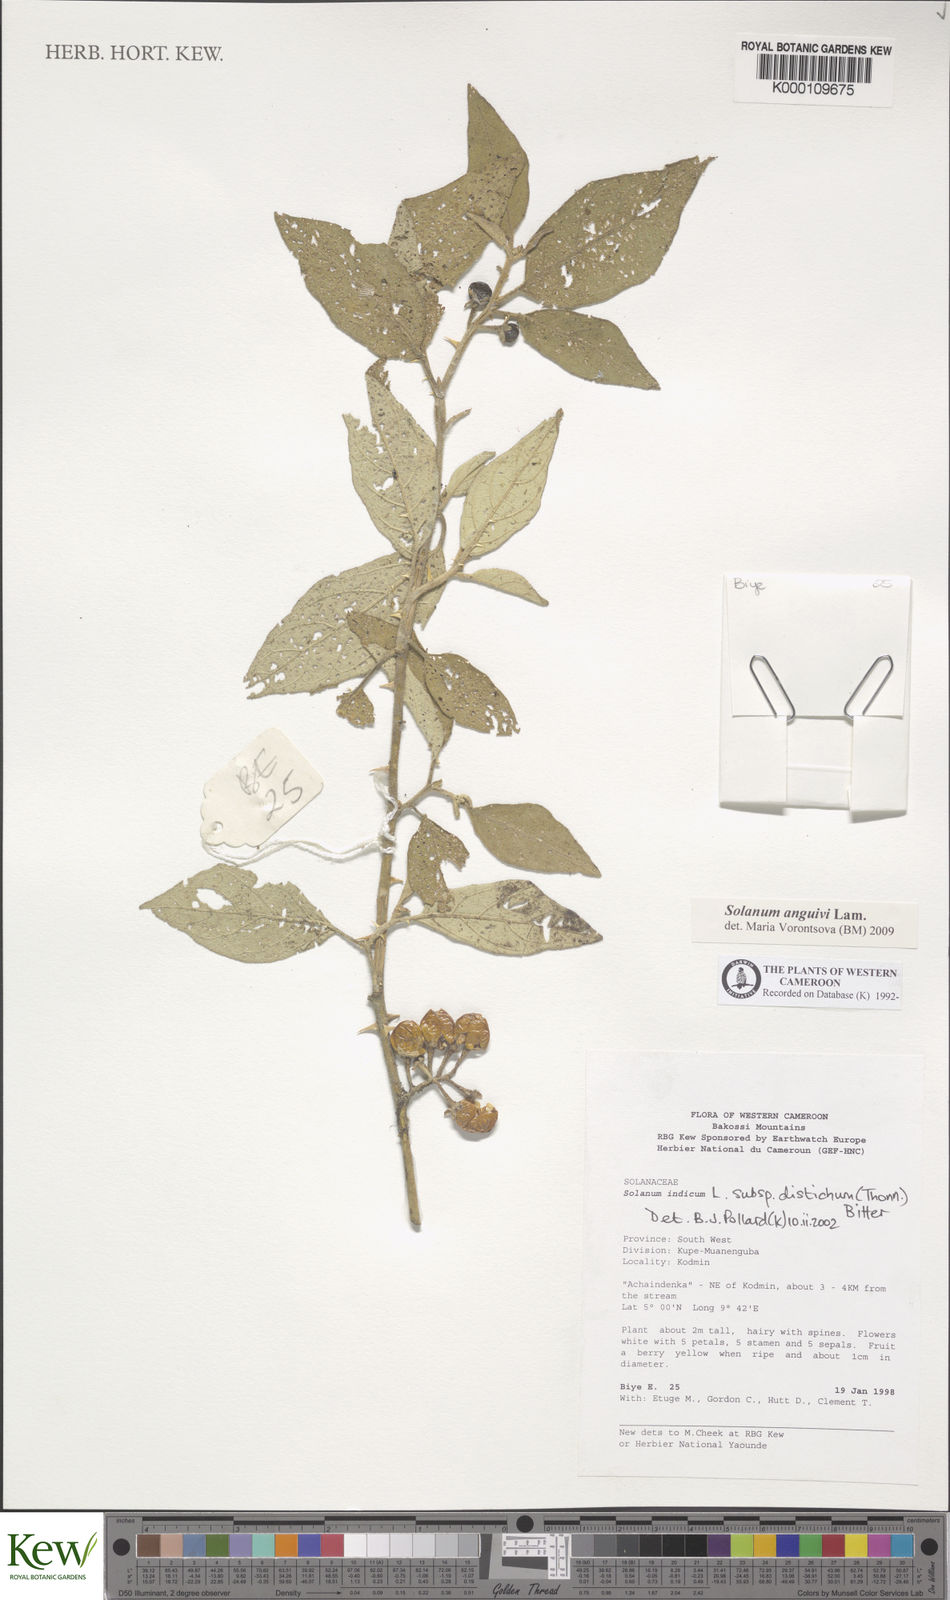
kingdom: Plantae
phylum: Tracheophyta
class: Magnoliopsida
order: Solanales
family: Solanaceae
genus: Solanum
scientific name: Solanum anguivi
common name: Forest bitterberry
